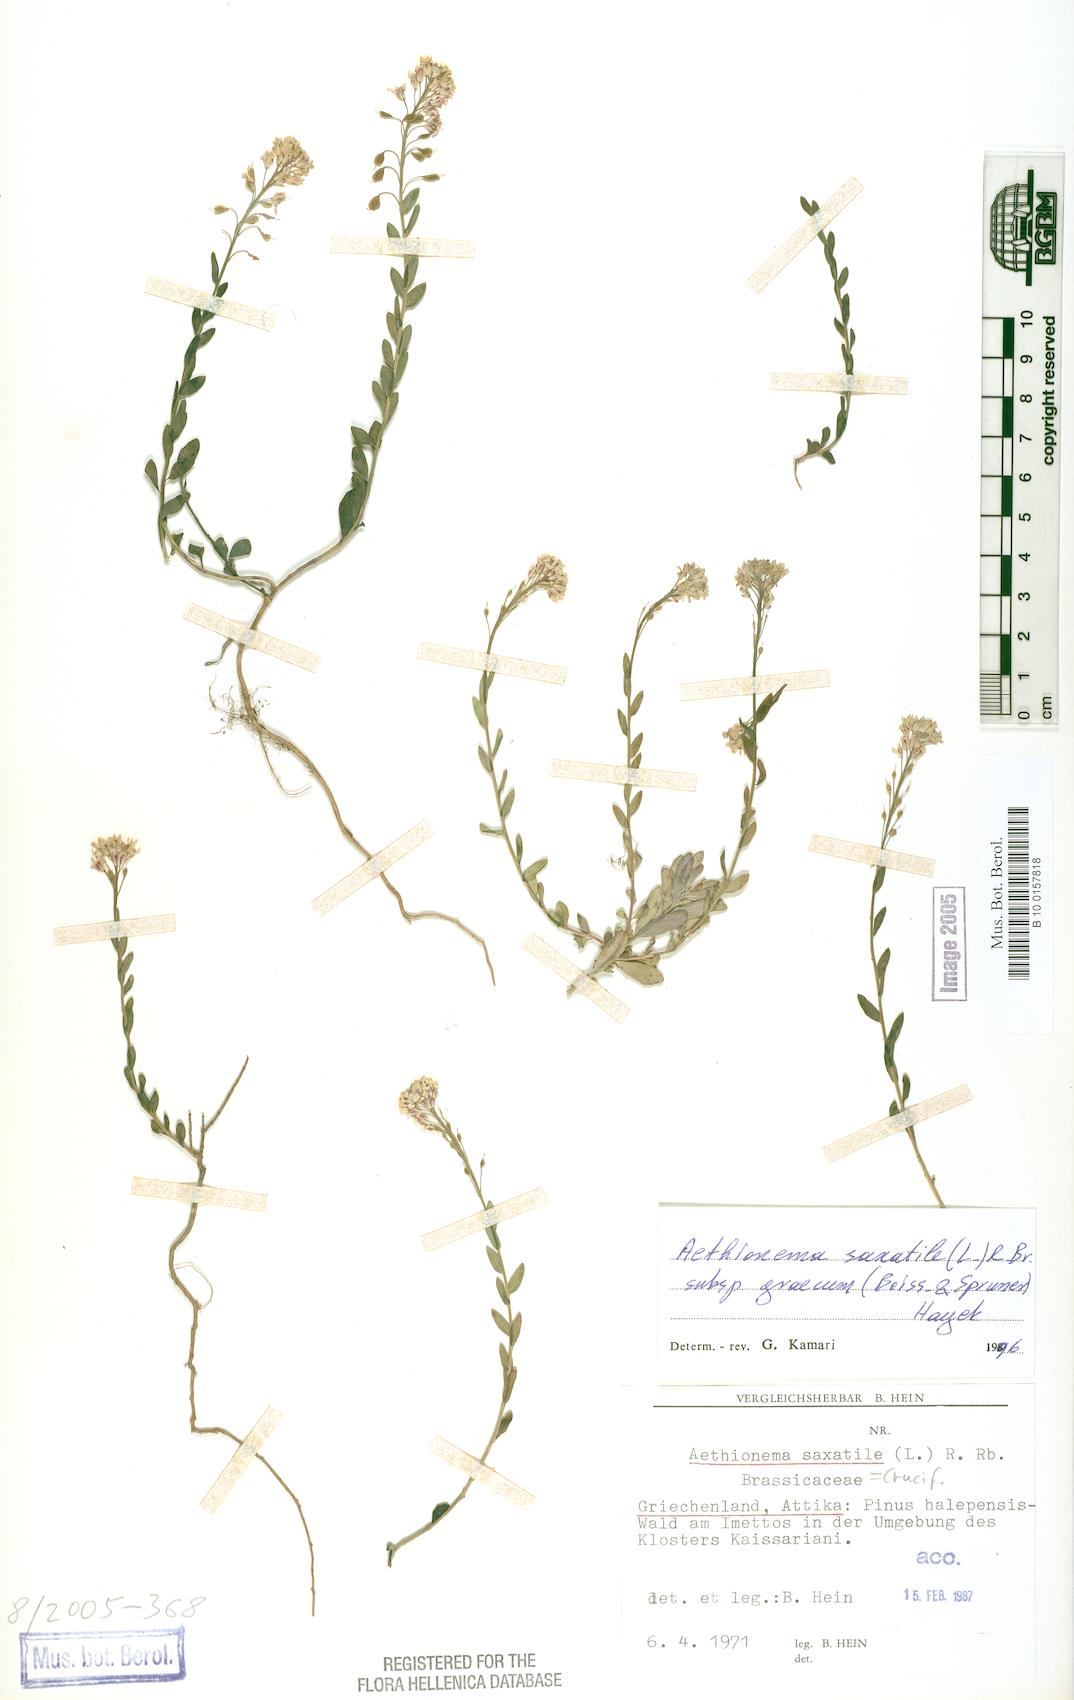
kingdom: Plantae
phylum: Tracheophyta
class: Magnoliopsida
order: Brassicales
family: Brassicaceae
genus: Aethionema
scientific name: Aethionema saxatile
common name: Burnt candytuft
